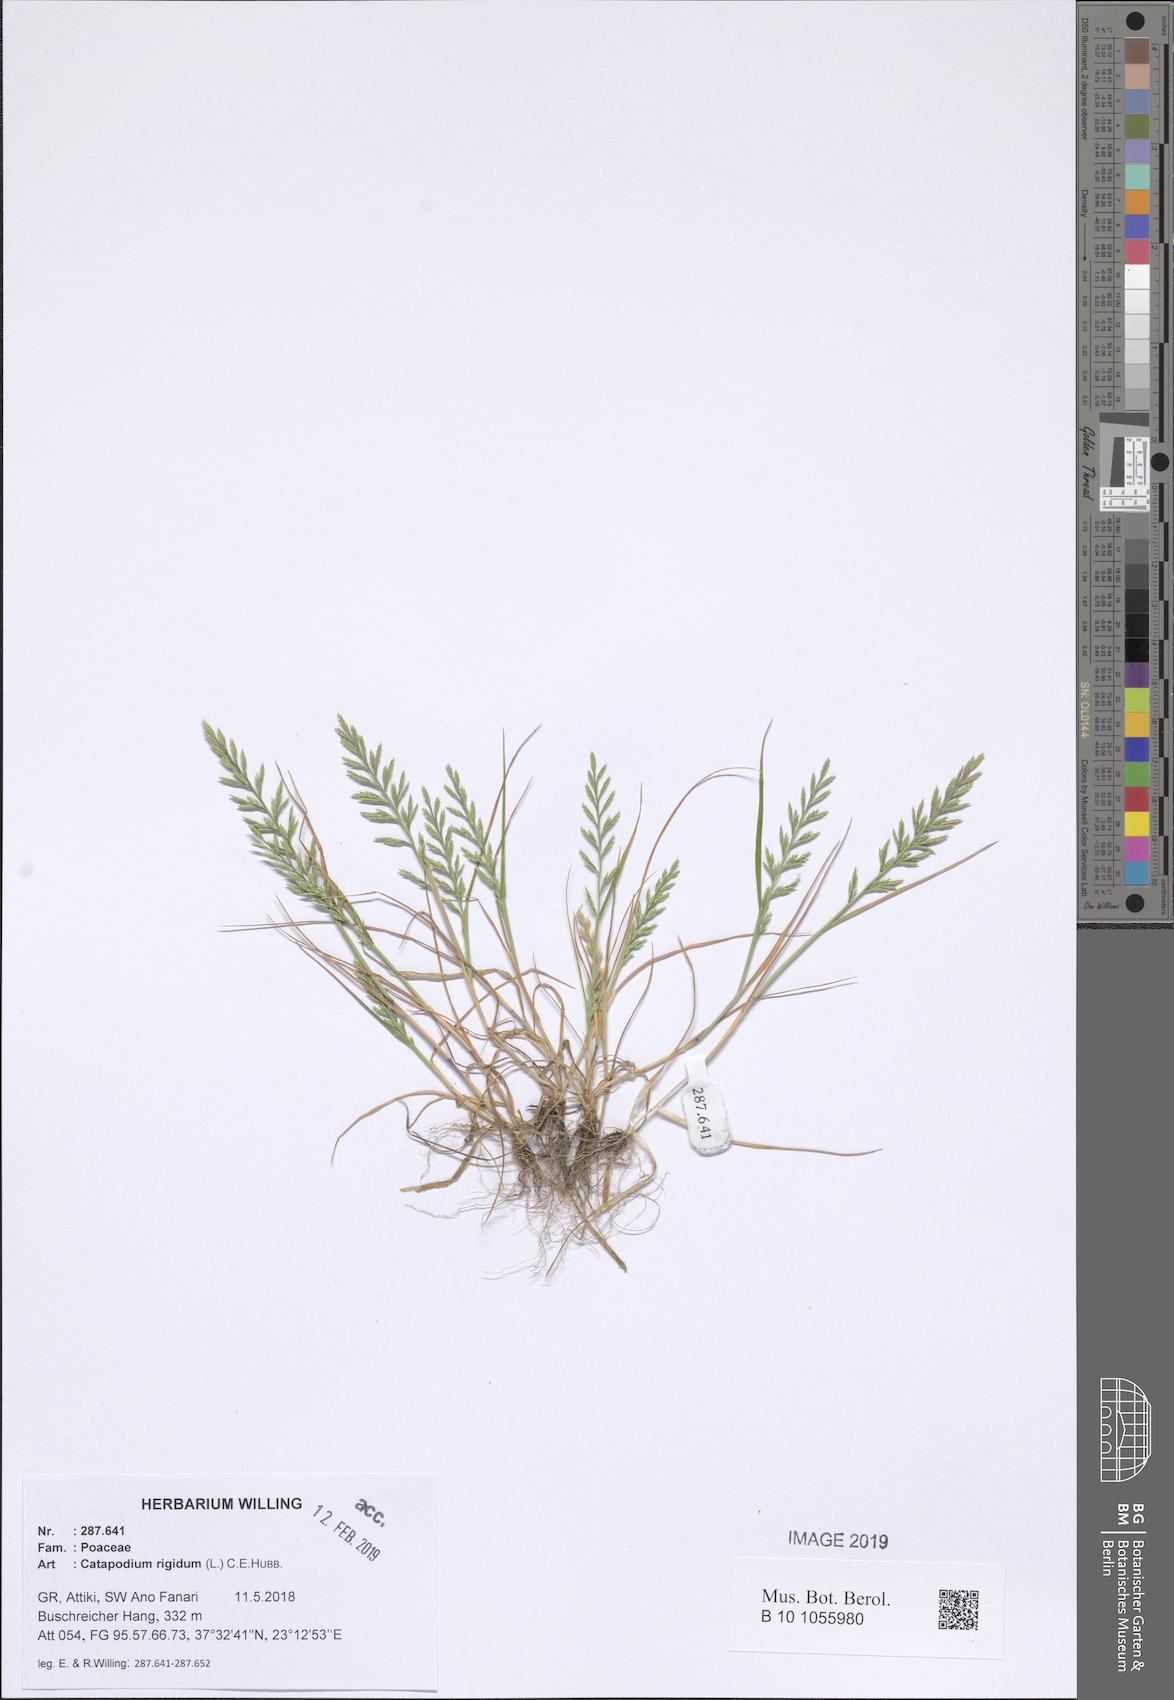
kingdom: Plantae
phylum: Tracheophyta
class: Liliopsida
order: Poales
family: Poaceae
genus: Catapodium
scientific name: Catapodium rigidum
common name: Fern-grass
